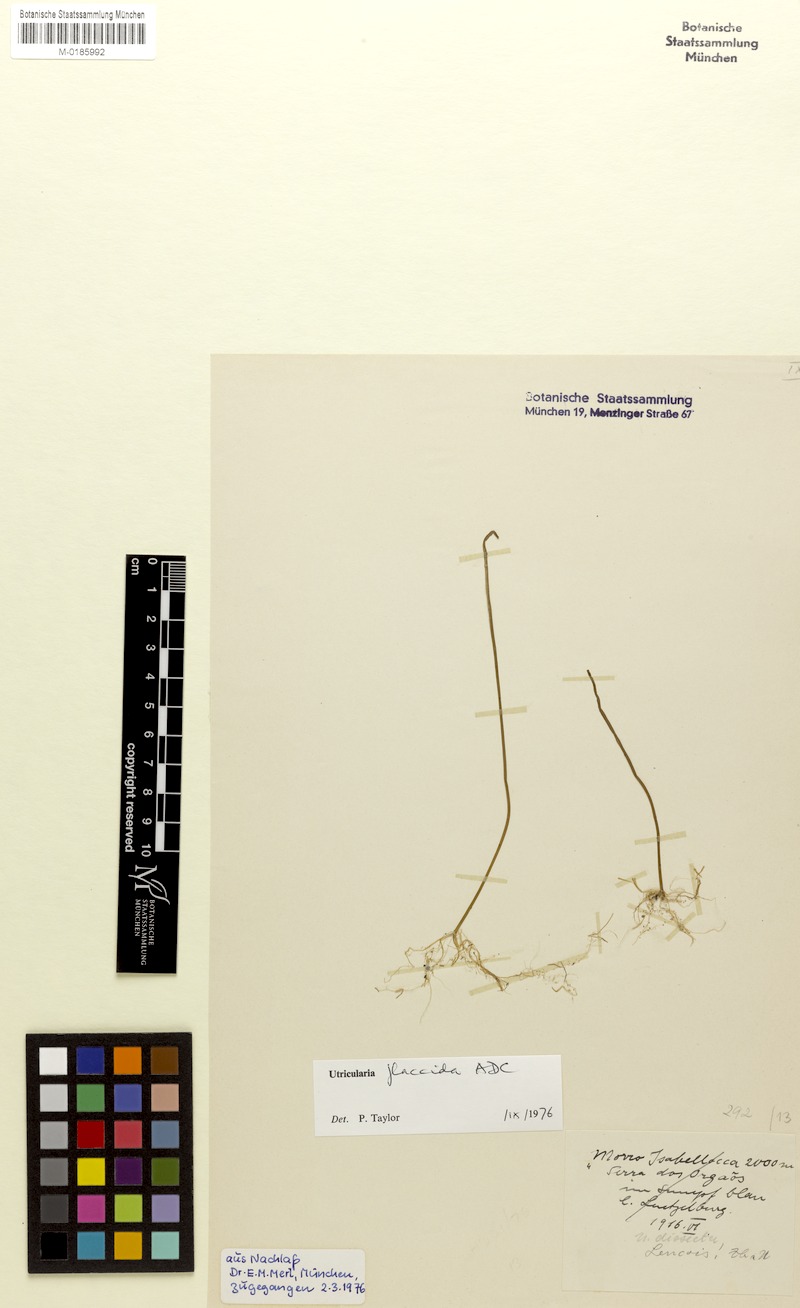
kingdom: Plantae
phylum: Tracheophyta
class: Magnoliopsida
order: Lamiales
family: Lentibulariaceae
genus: Utricularia
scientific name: Utricularia flaccida
